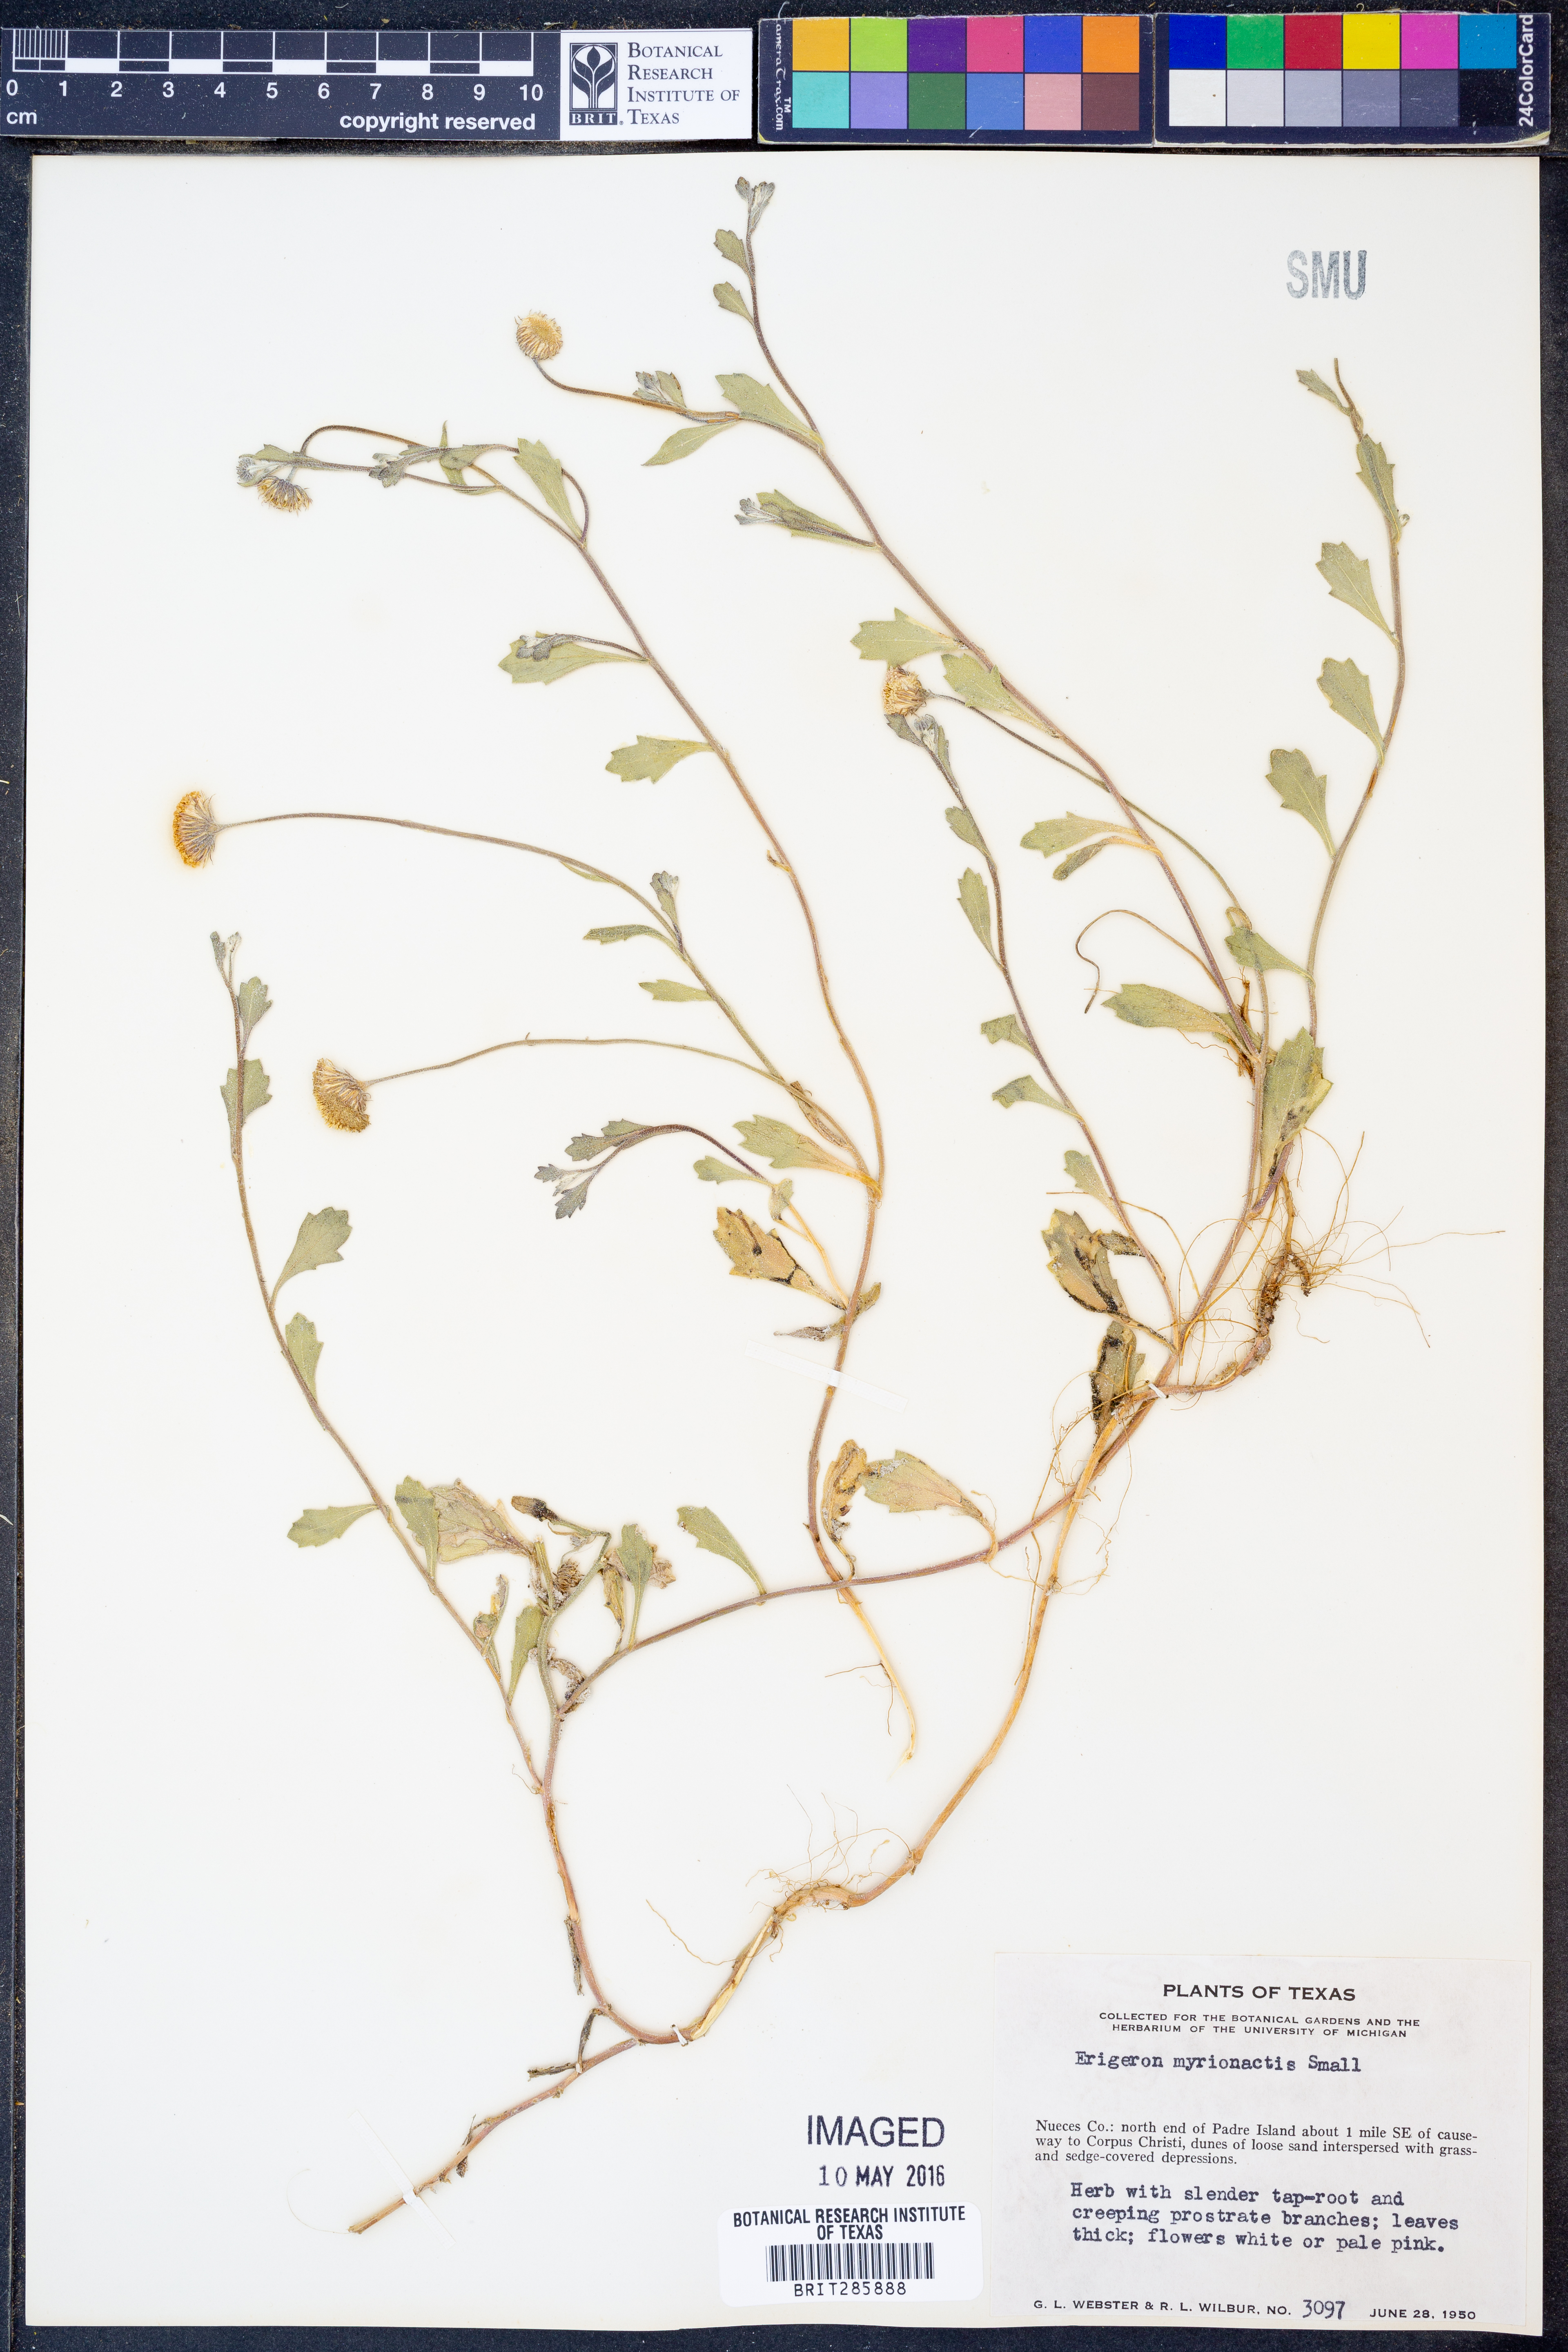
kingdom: Plantae
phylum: Tracheophyta
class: Magnoliopsida
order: Asterales
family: Asteraceae
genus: Erigeron
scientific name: Erigeron procumbens
